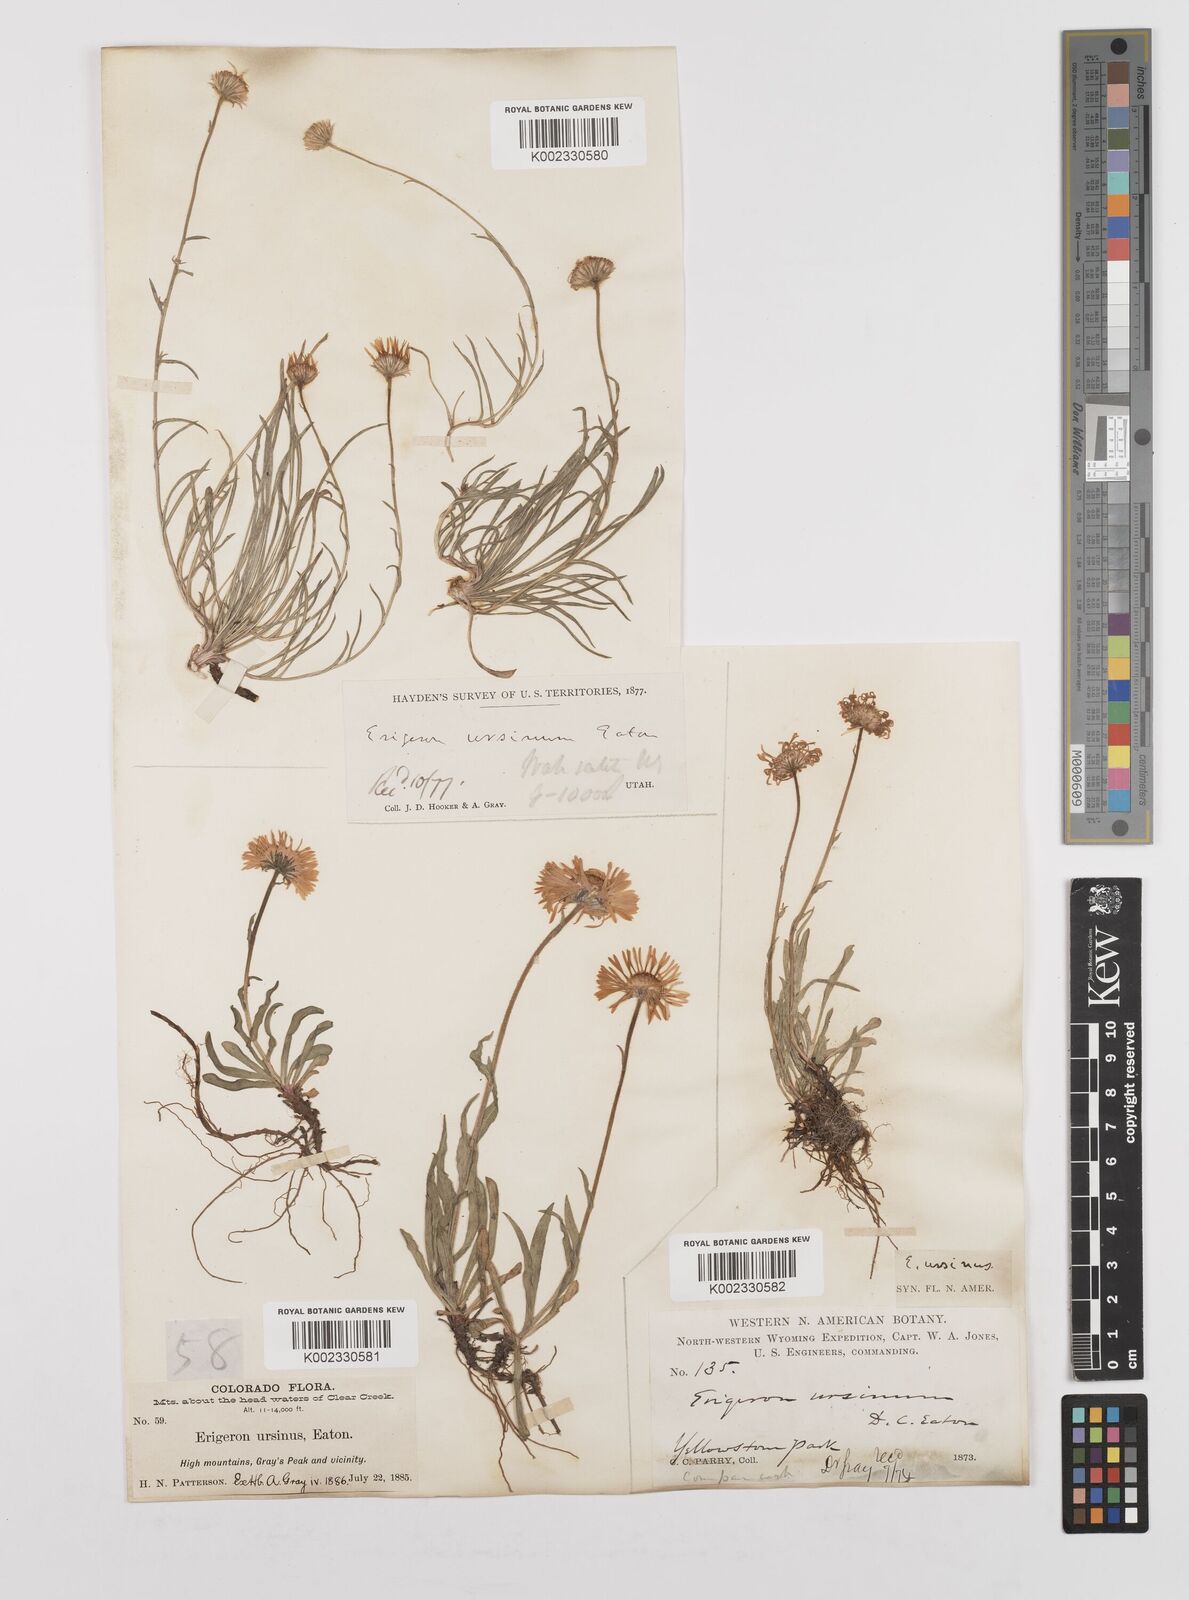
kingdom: Plantae
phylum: Tracheophyta
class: Magnoliopsida
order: Asterales
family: Asteraceae
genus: Erigeron
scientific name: Erigeron ursinus
